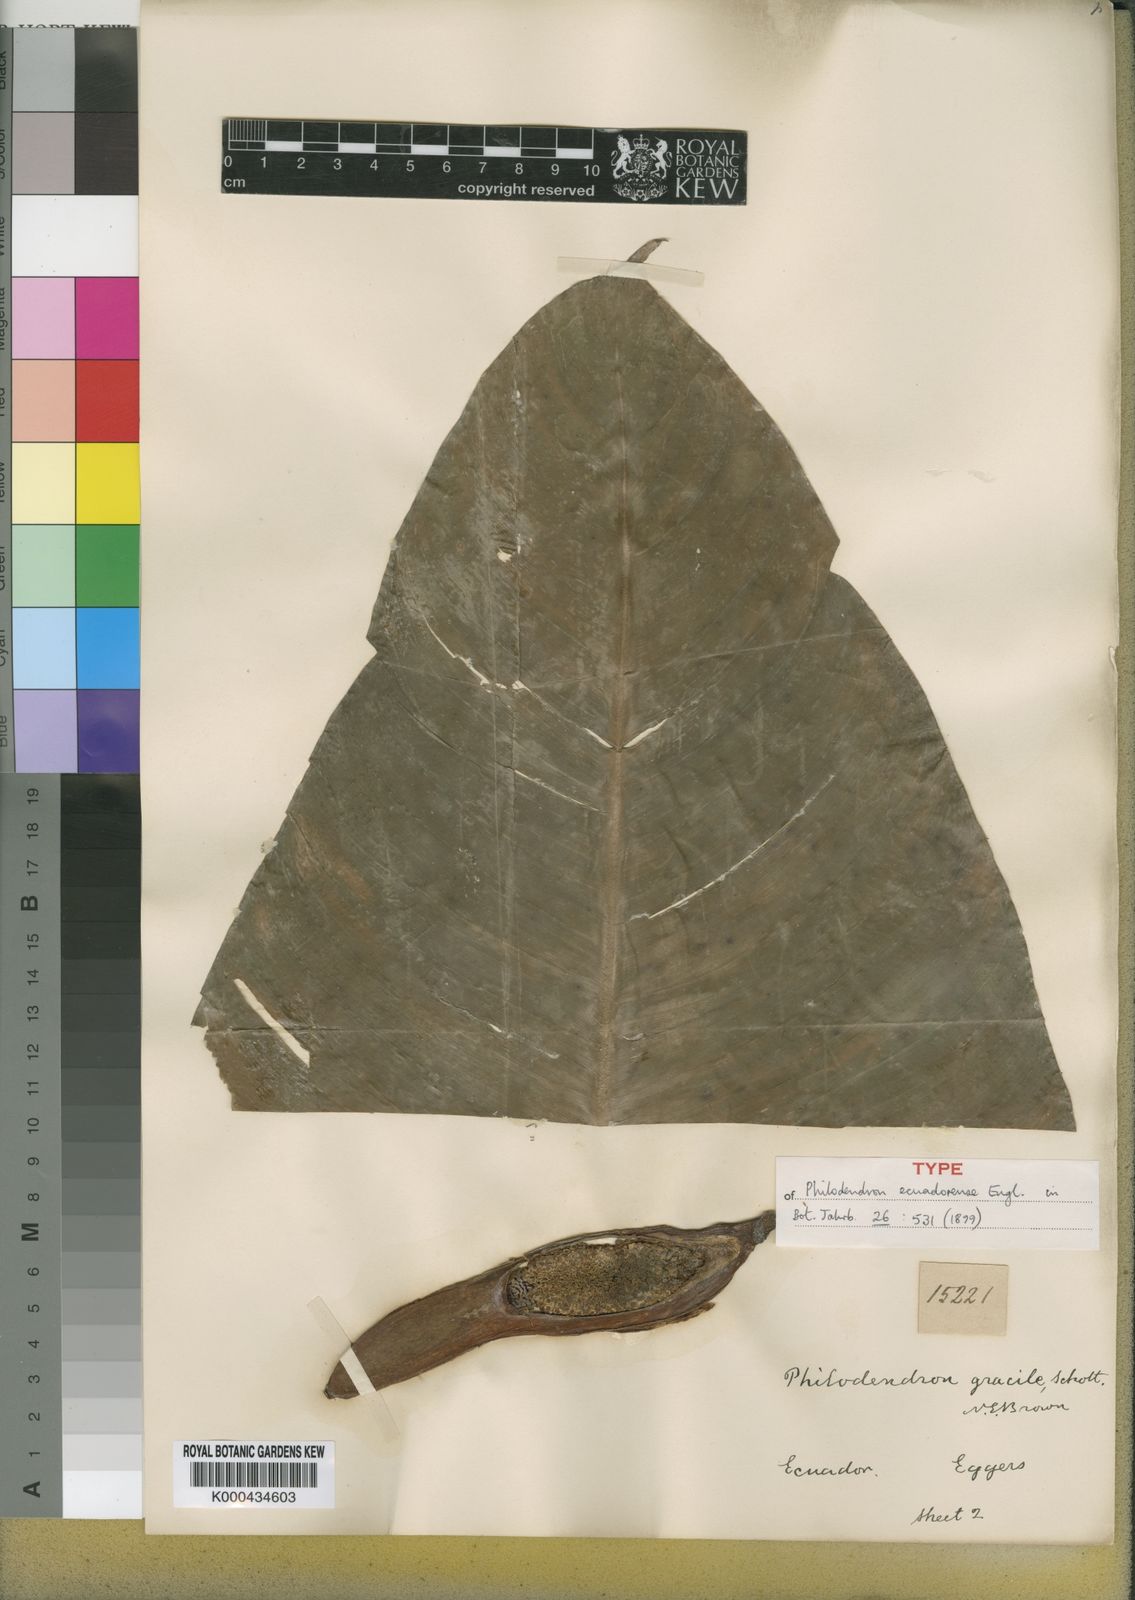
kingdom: Plantae
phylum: Tracheophyta
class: Liliopsida
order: Alismatales
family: Araceae
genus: Philodendron
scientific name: Philodendron tenue
